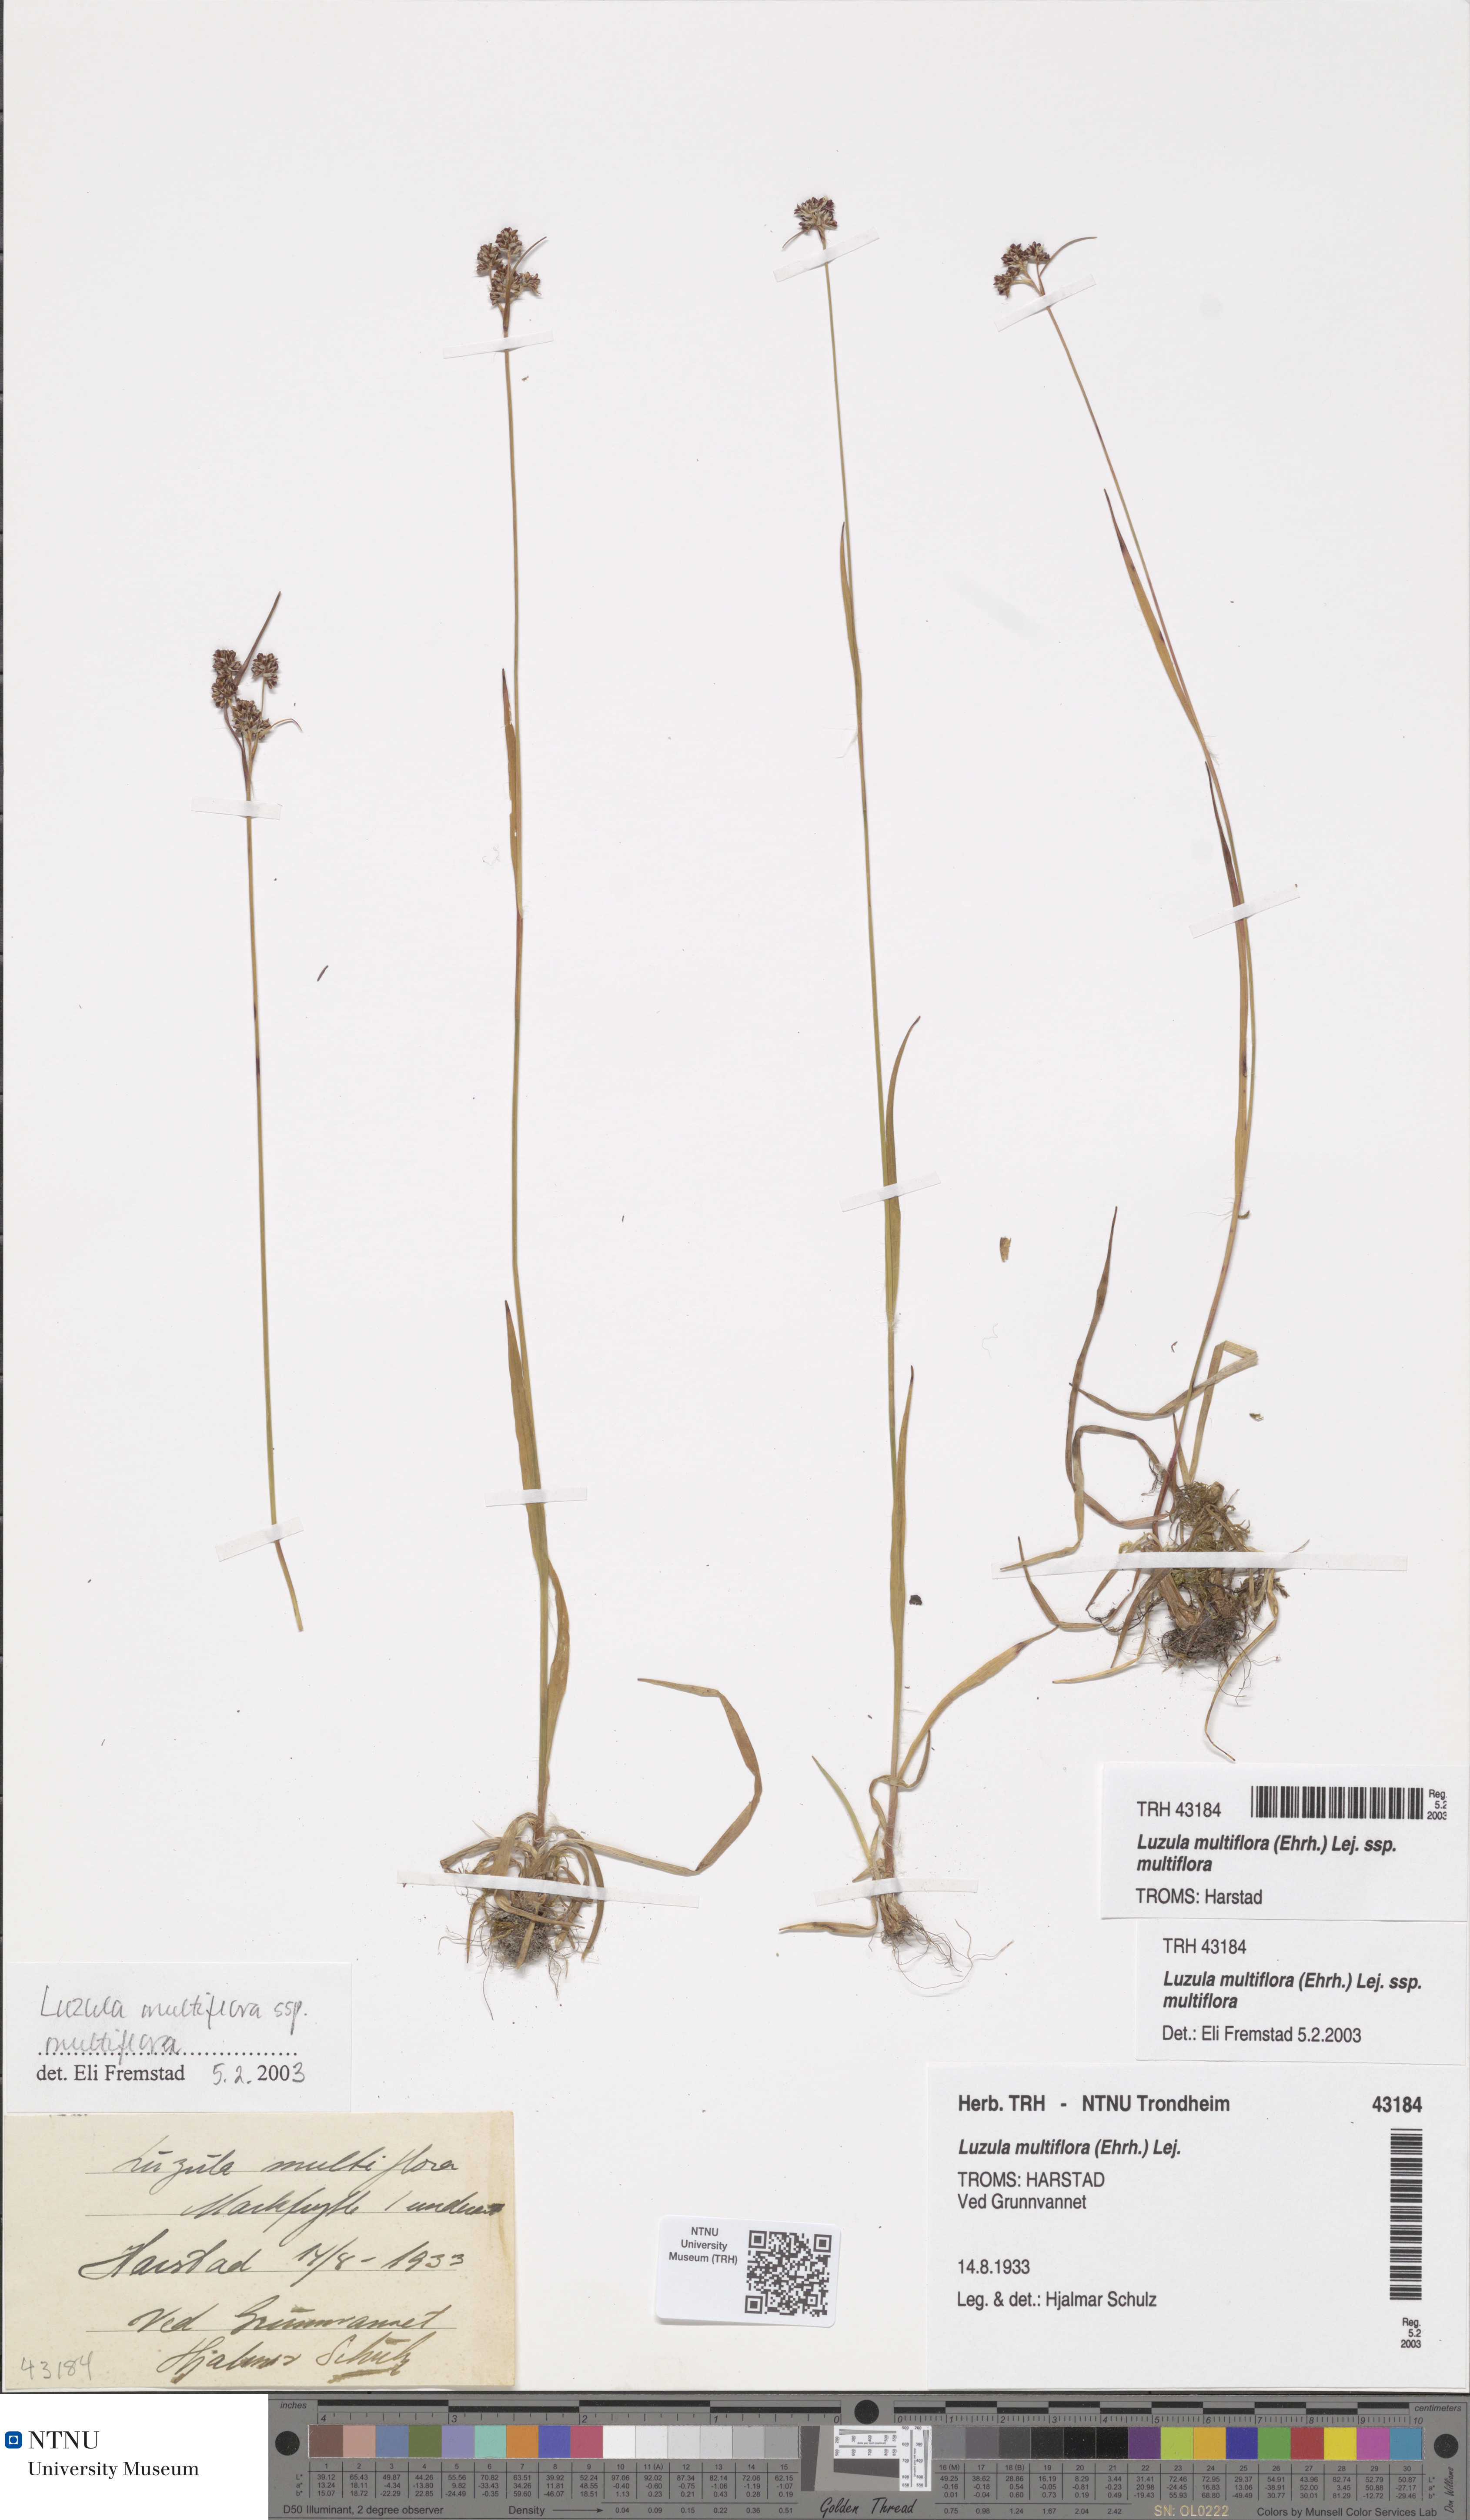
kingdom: Plantae
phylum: Tracheophyta
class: Liliopsida
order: Poales
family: Juncaceae
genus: Luzula
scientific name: Luzula multiflora
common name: Heath wood-rush
